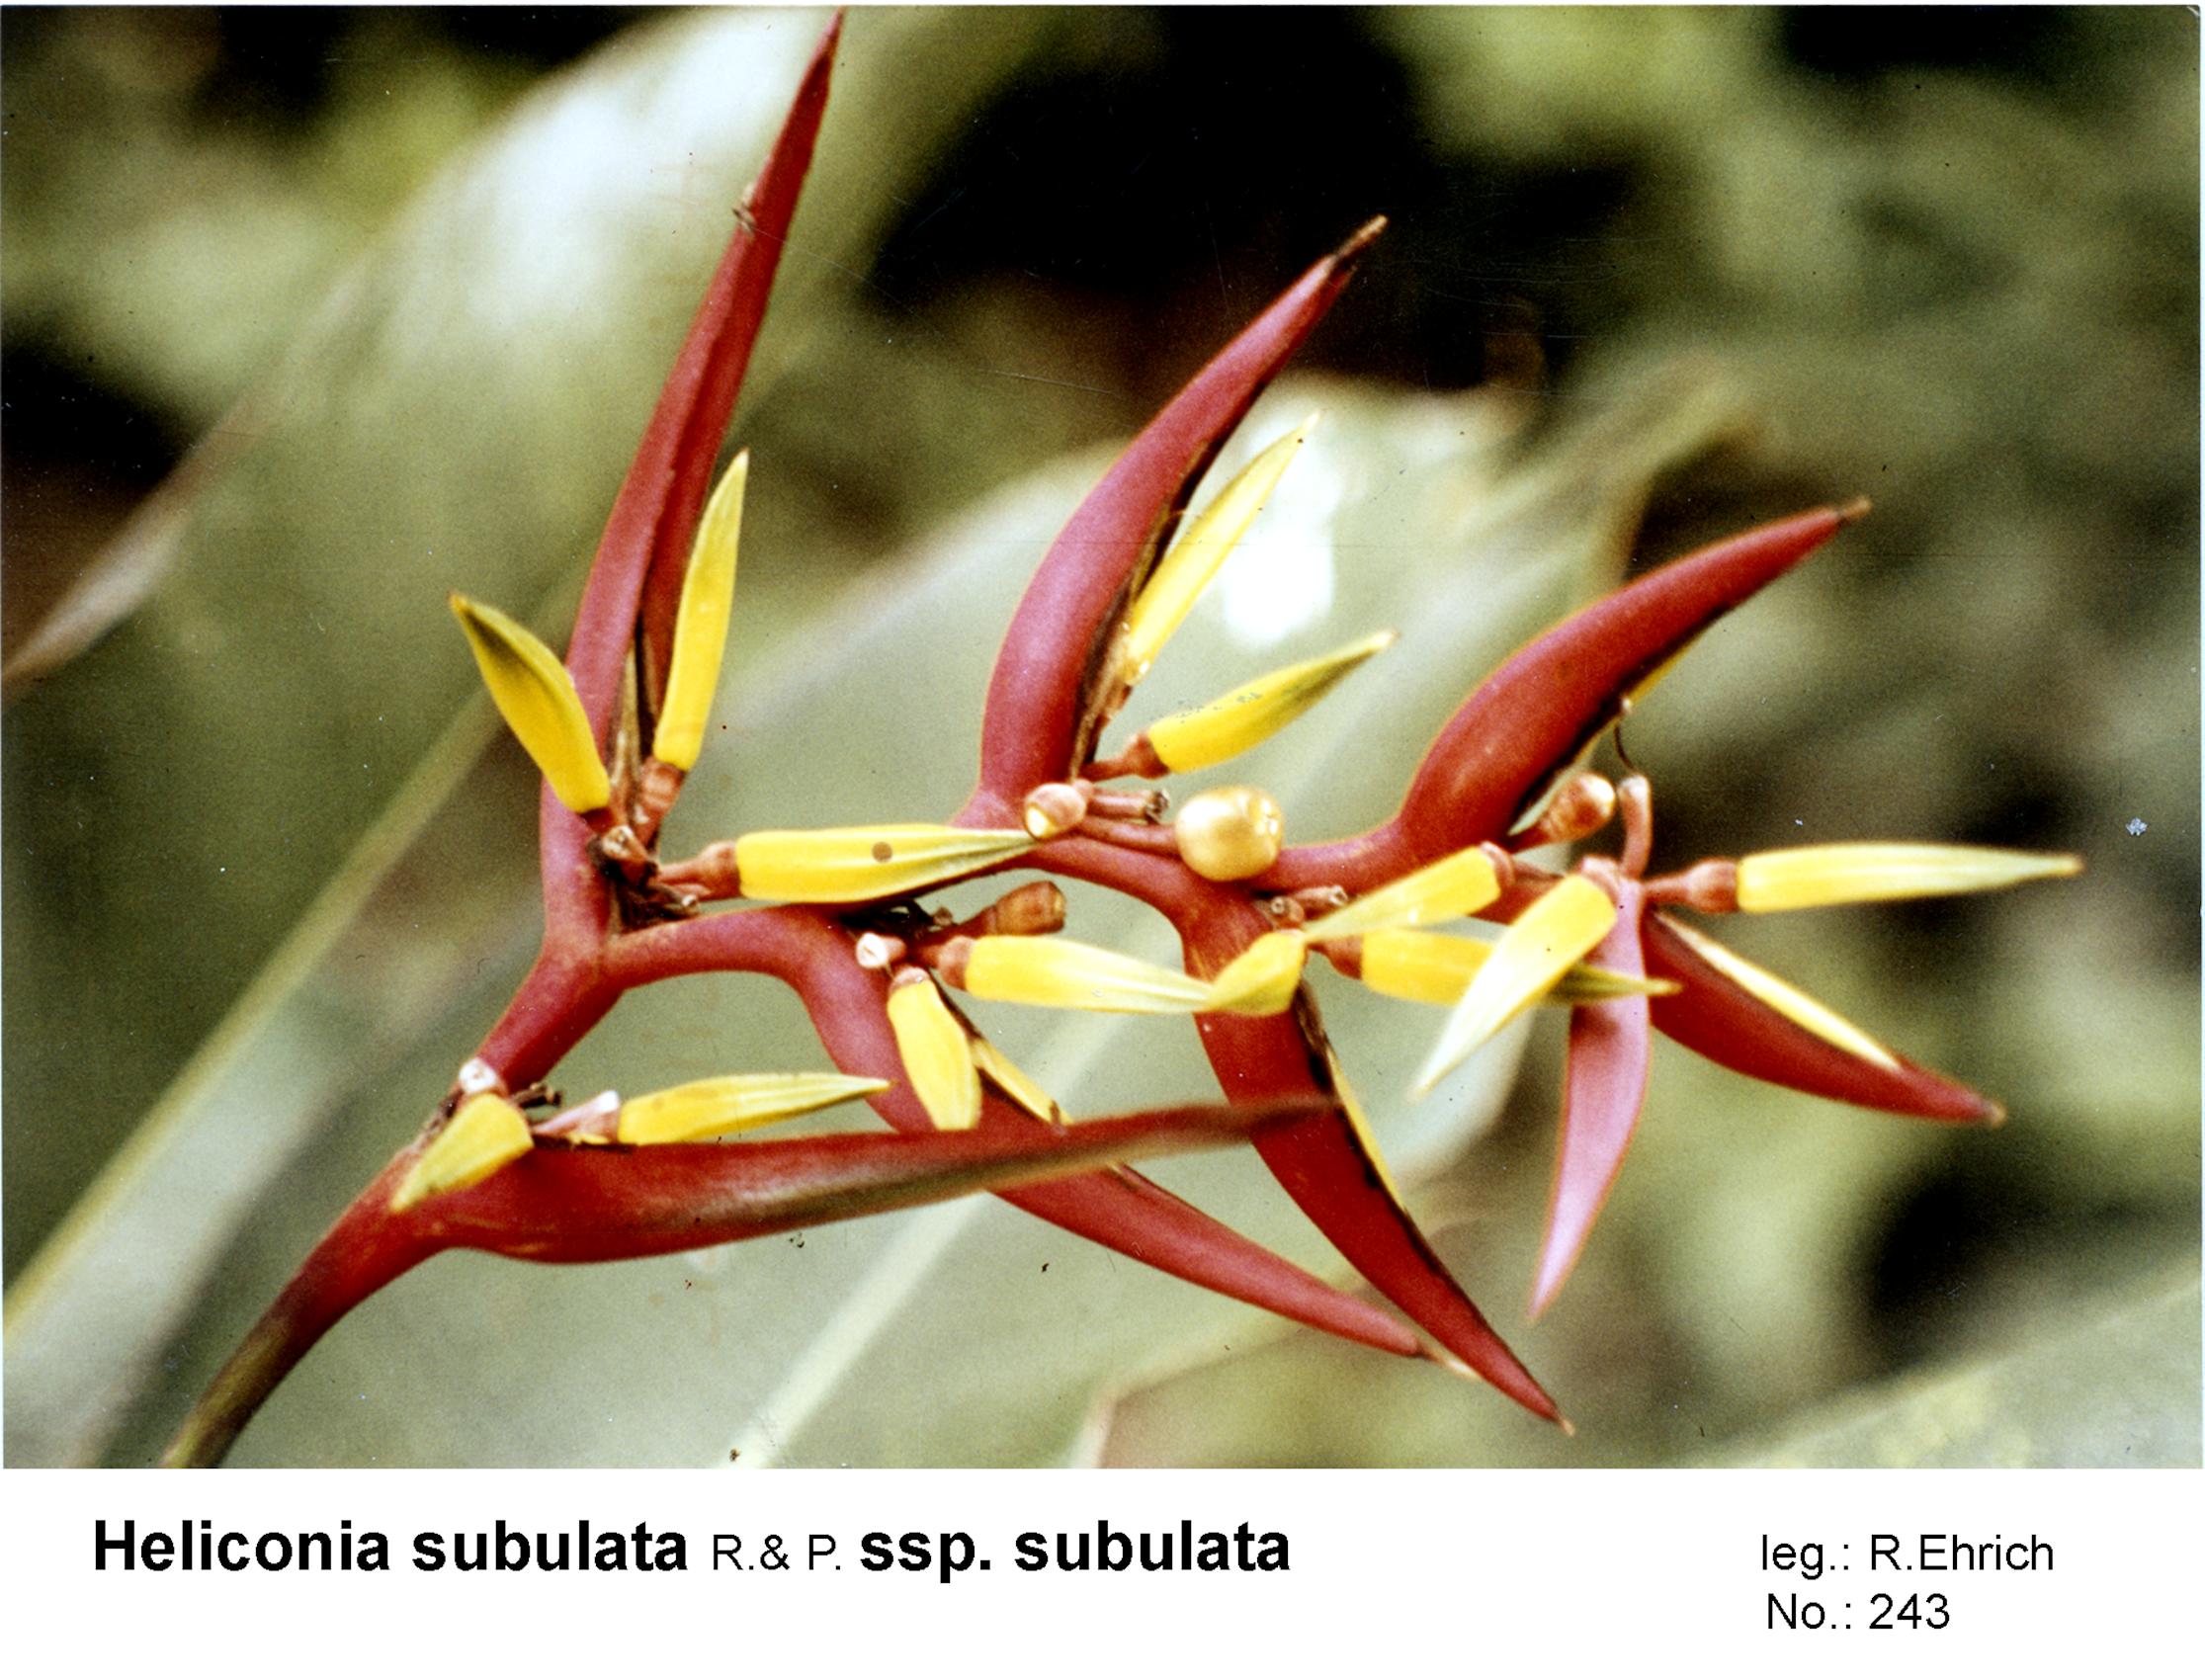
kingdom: Plantae
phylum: Tracheophyta
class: Liliopsida
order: Zingiberales
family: Heliconiaceae
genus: Heliconia
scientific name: Heliconia subulata
